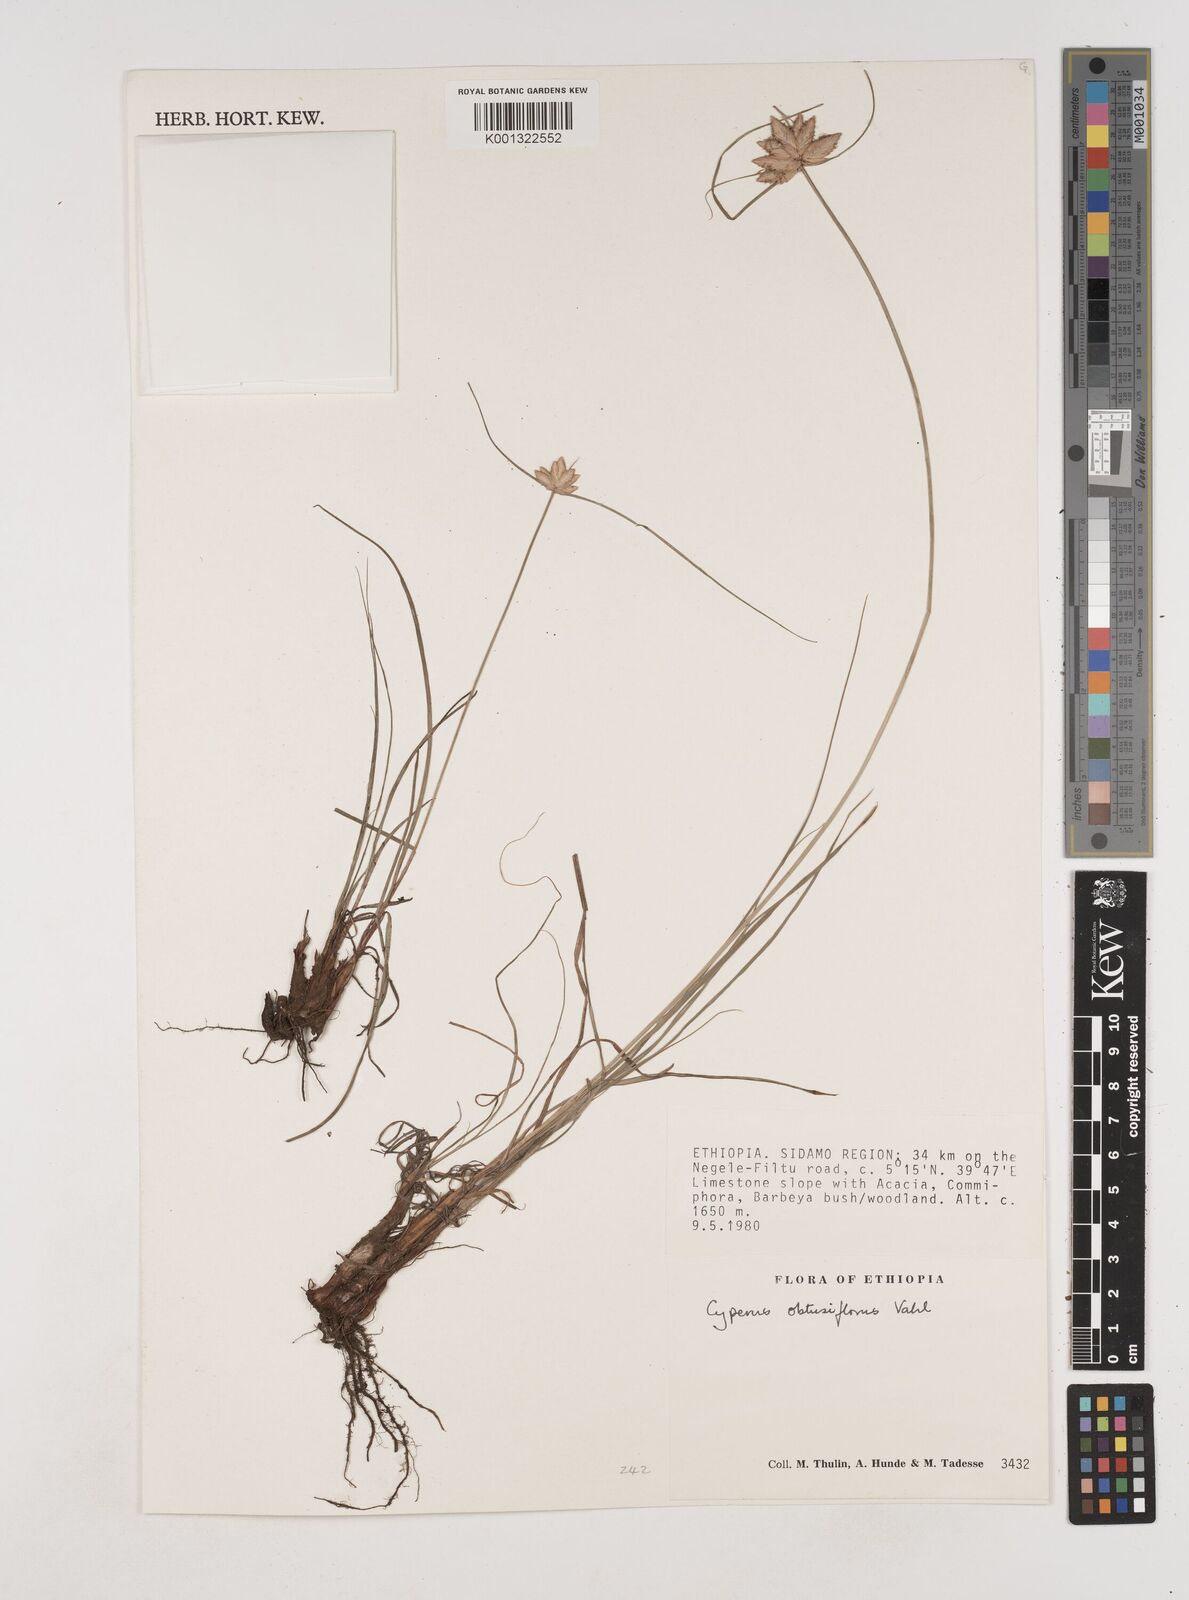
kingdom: Plantae
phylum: Tracheophyta
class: Liliopsida
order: Poales
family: Cyperaceae
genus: Cyperus
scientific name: Cyperus niveus
